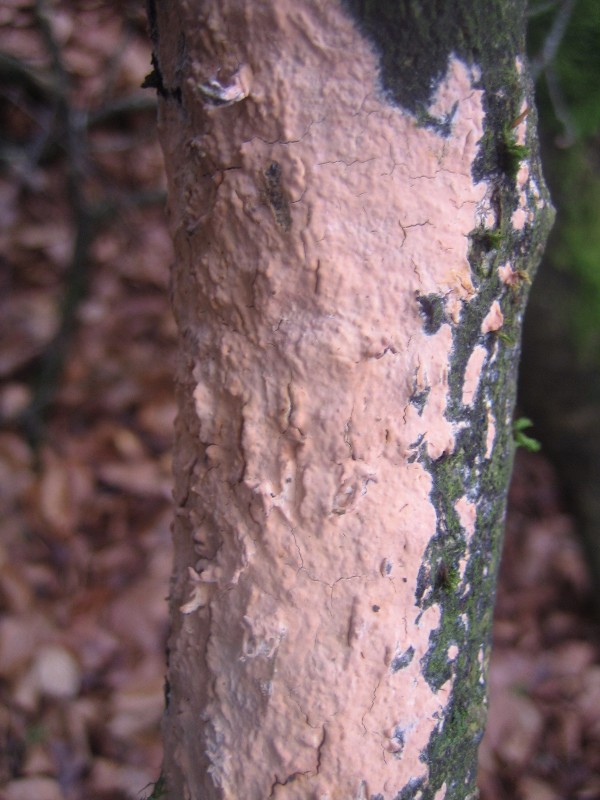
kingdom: Fungi
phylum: Basidiomycota
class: Agaricomycetes
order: Russulales
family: Peniophoraceae
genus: Peniophora
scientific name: Peniophora incarnata
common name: laksefarvet voksskind
